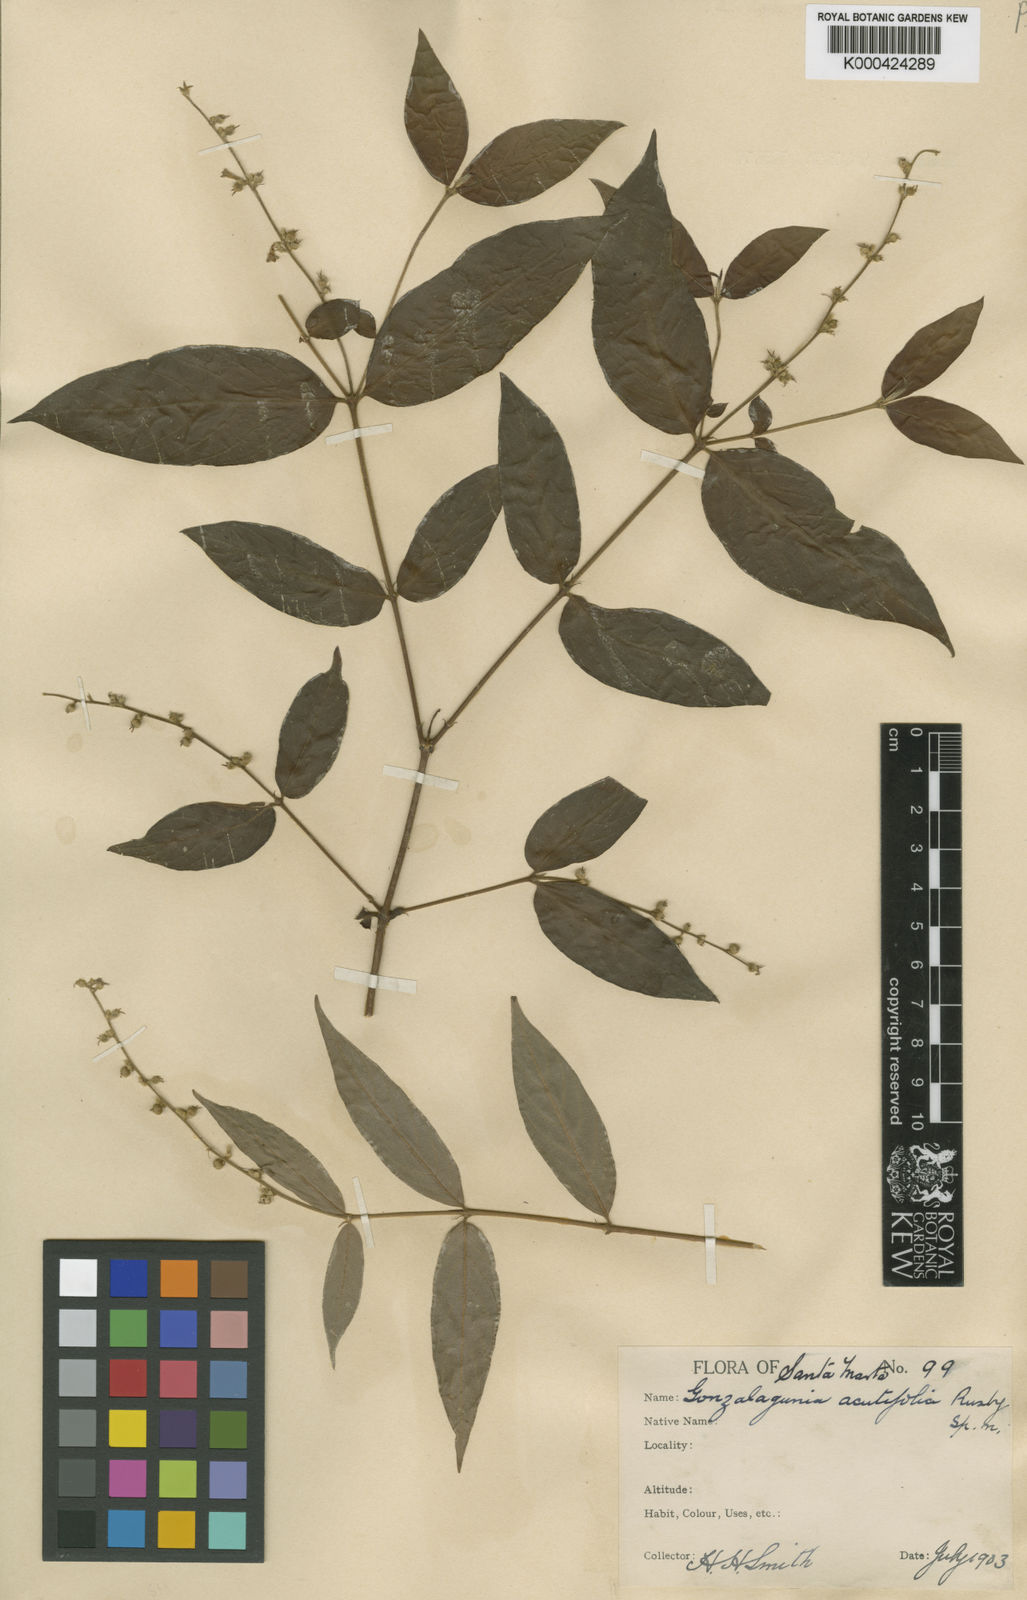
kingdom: Plantae
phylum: Tracheophyta
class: Magnoliopsida
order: Gentianales
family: Rubiaceae
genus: Gonzalagunia
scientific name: Gonzalagunia rudis
